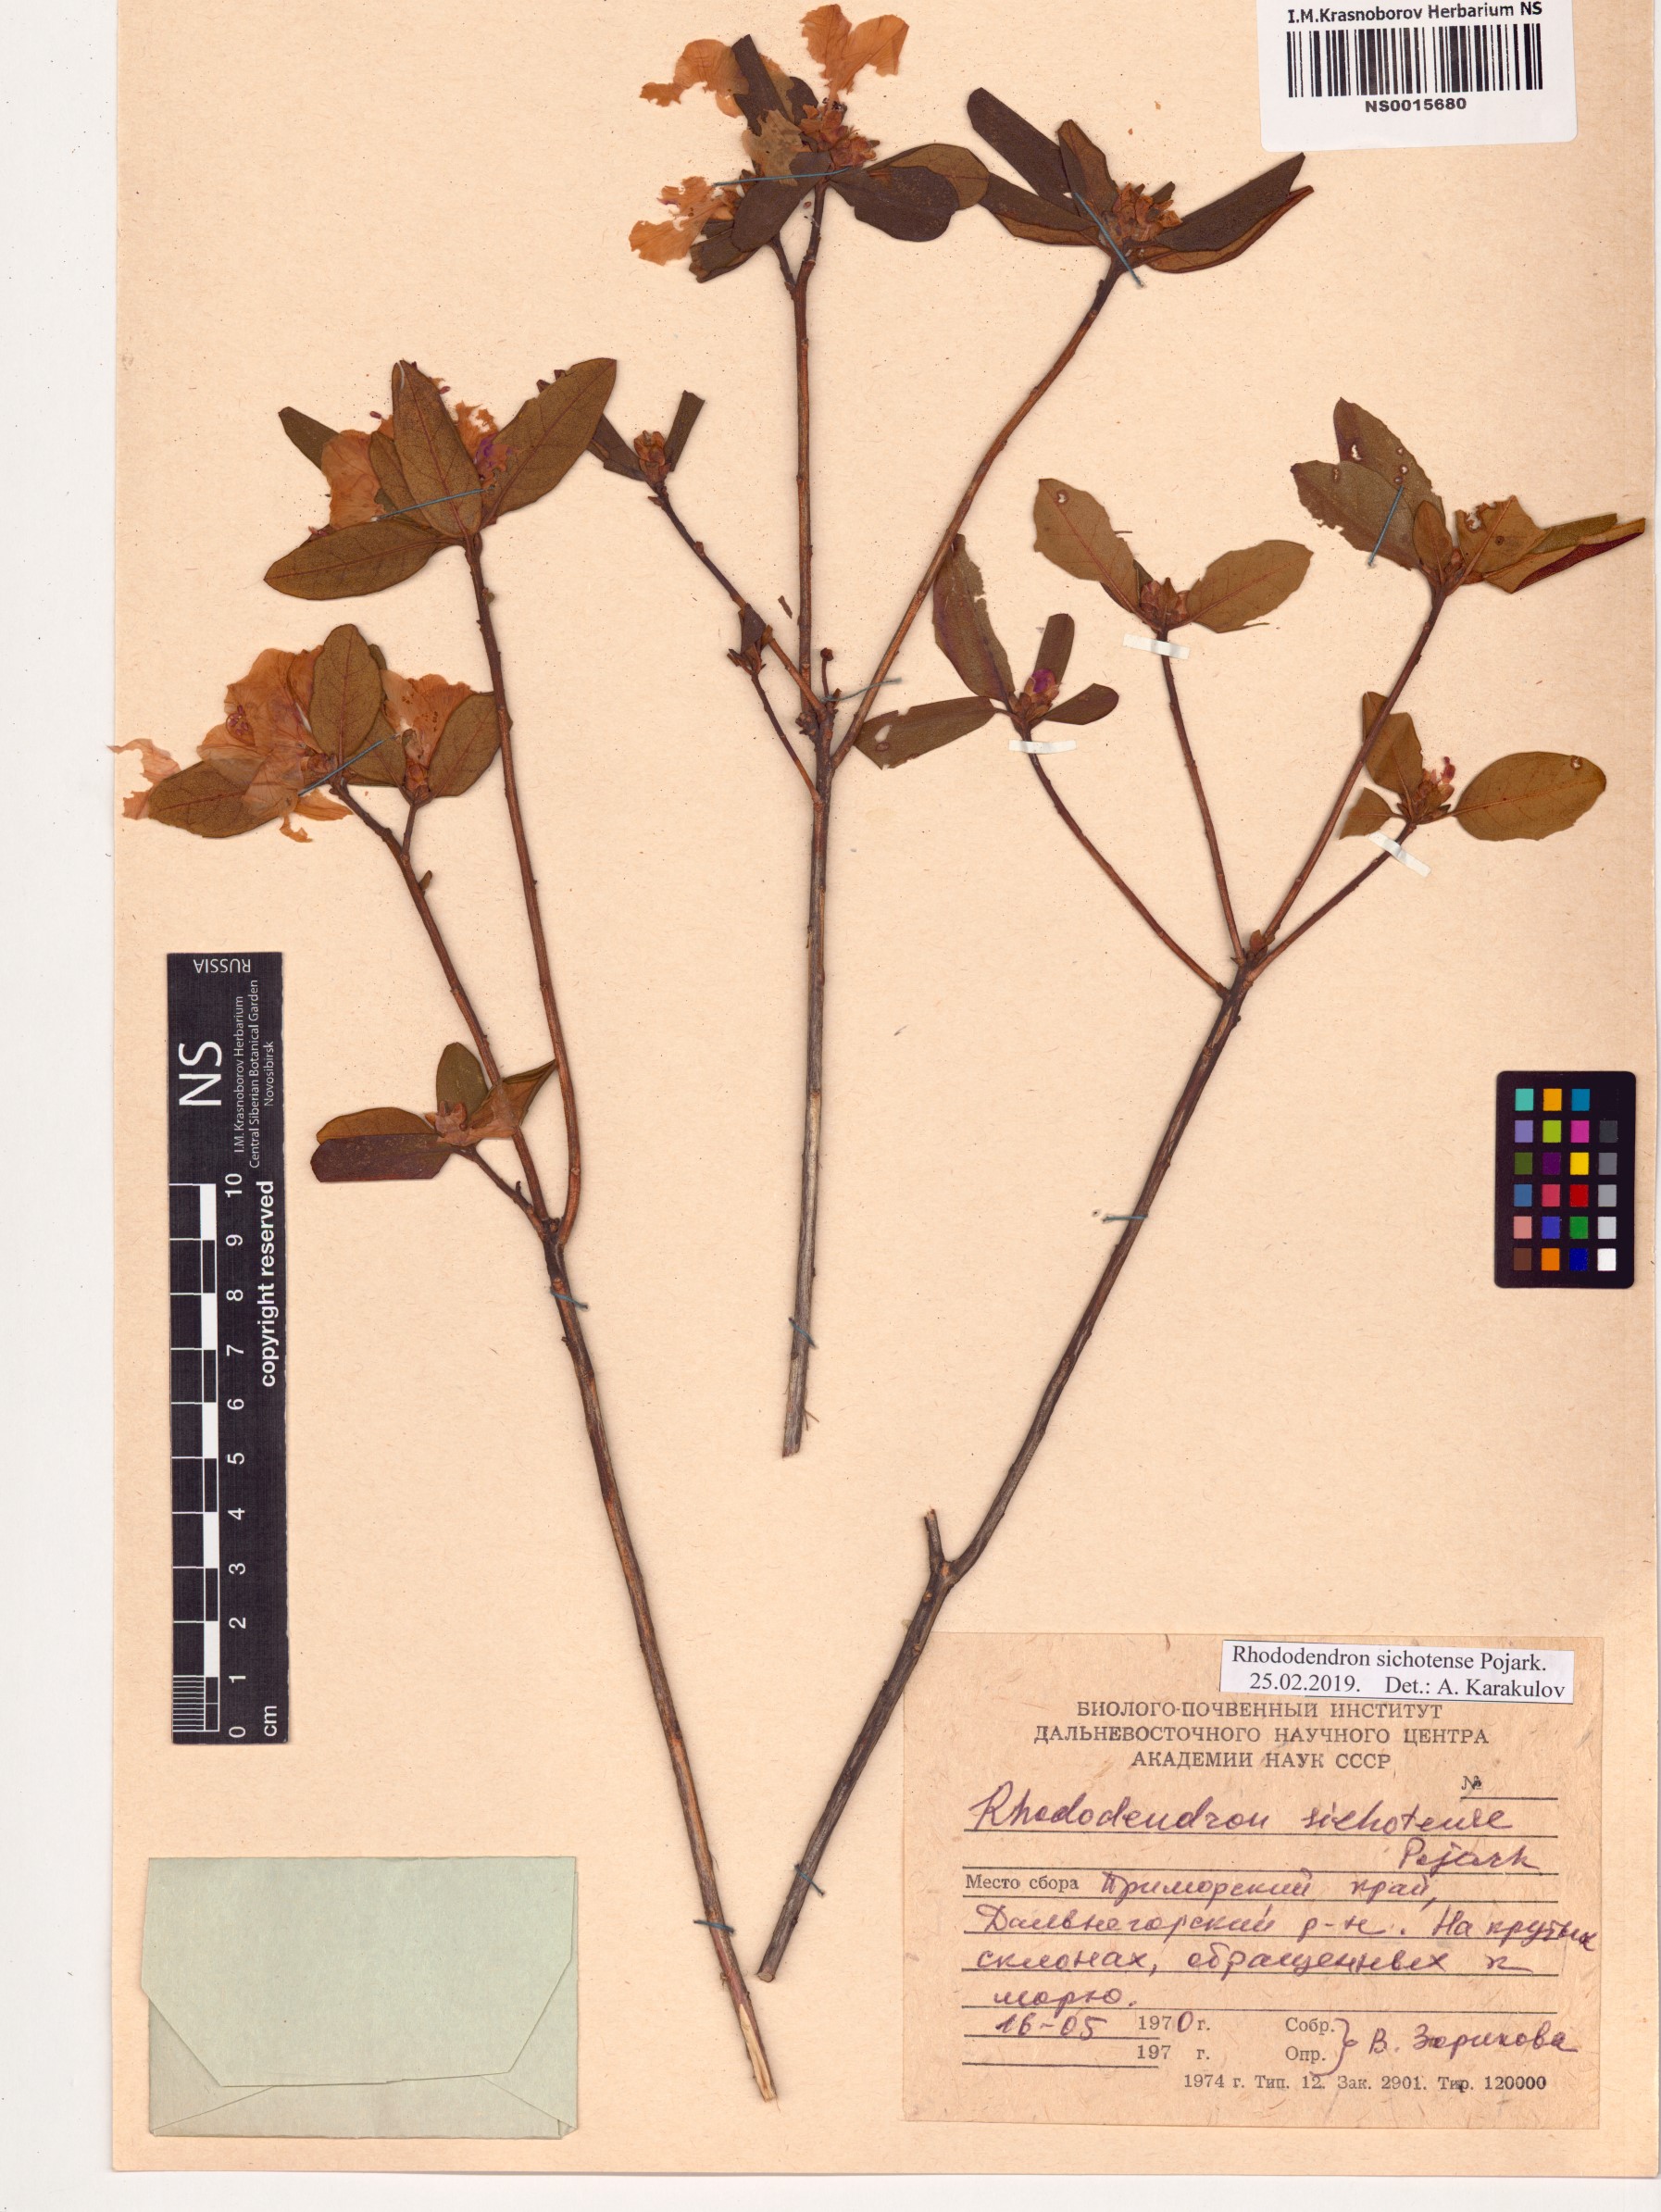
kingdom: Plantae
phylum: Tracheophyta
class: Magnoliopsida
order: Ericales
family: Ericaceae
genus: Rhododendron
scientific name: Rhododendron sichotense
